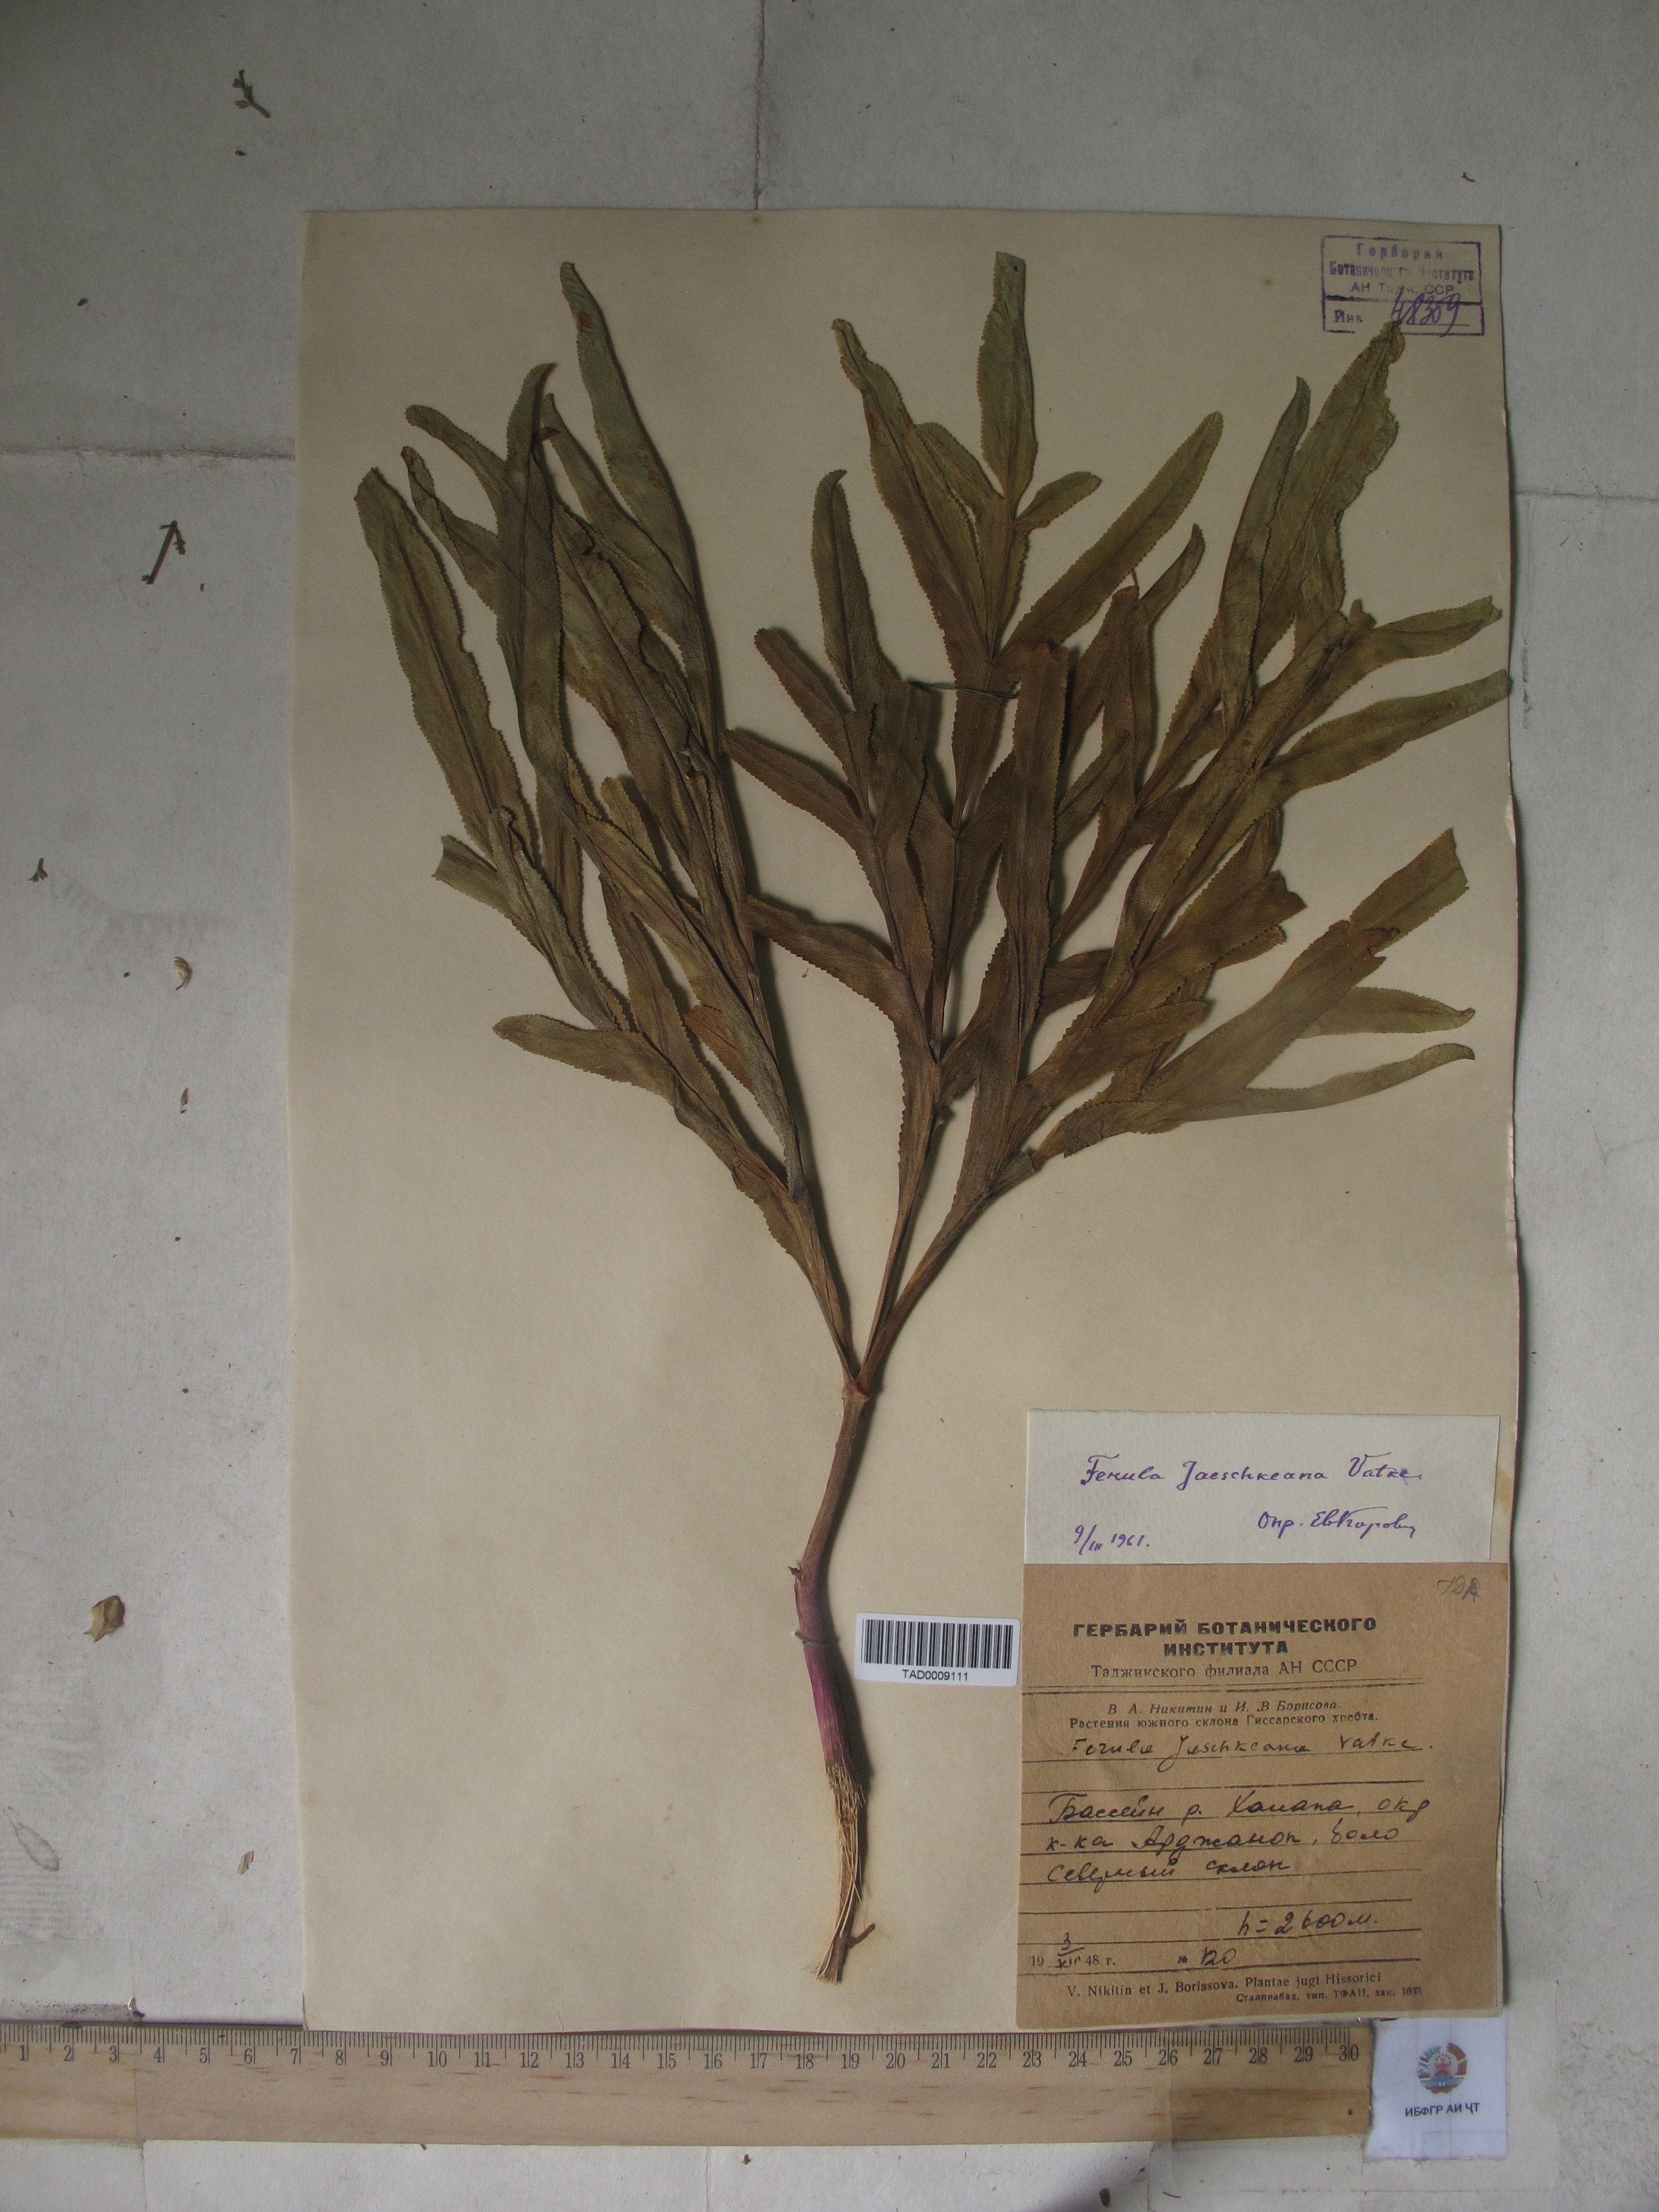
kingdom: Plantae
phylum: Tracheophyta
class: Magnoliopsida
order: Apiales
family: Apiaceae
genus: Ferula
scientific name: Ferula jaeschkeana
